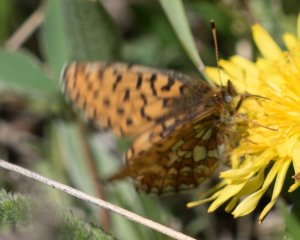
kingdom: Animalia
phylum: Arthropoda
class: Insecta
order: Lepidoptera
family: Nymphalidae
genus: Boloria
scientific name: Boloria eunomia
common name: Bog Fritillary
